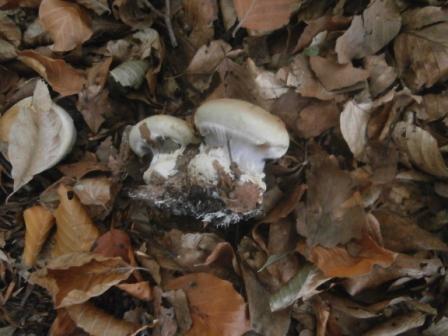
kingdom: Fungi
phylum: Basidiomycota
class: Agaricomycetes
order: Agaricales
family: Cortinariaceae
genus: Cortinarius
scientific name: Cortinarius anserinus
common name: bøge-slørhat
